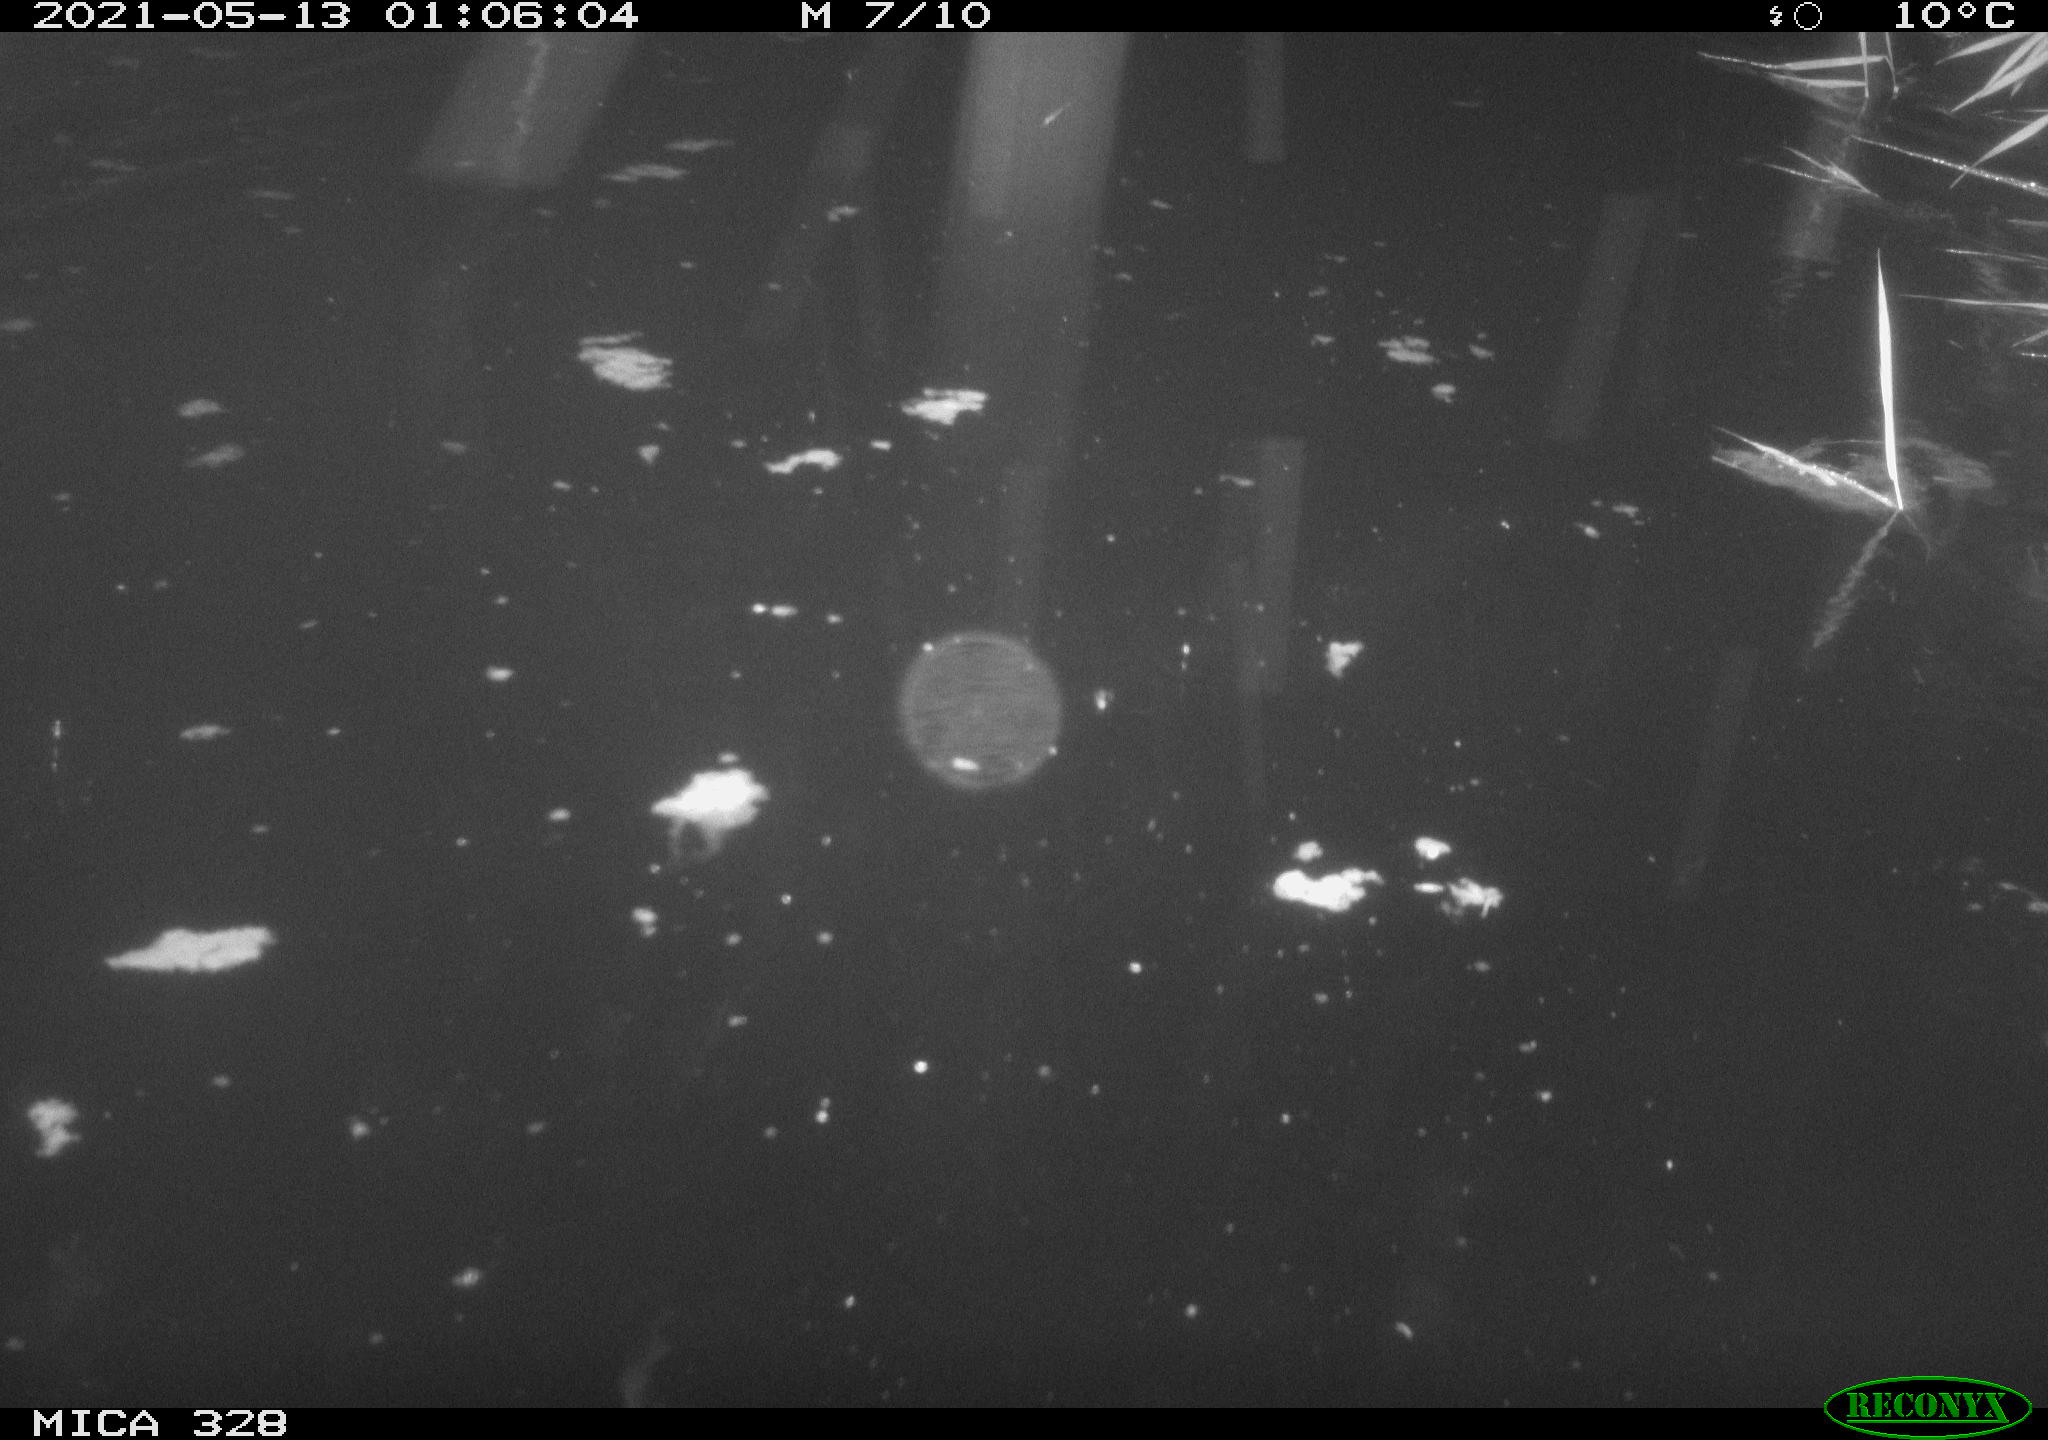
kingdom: Animalia
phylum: Chordata
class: Aves
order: Anseriformes
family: Anatidae
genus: Anas
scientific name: Anas platyrhynchos
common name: Mallard
